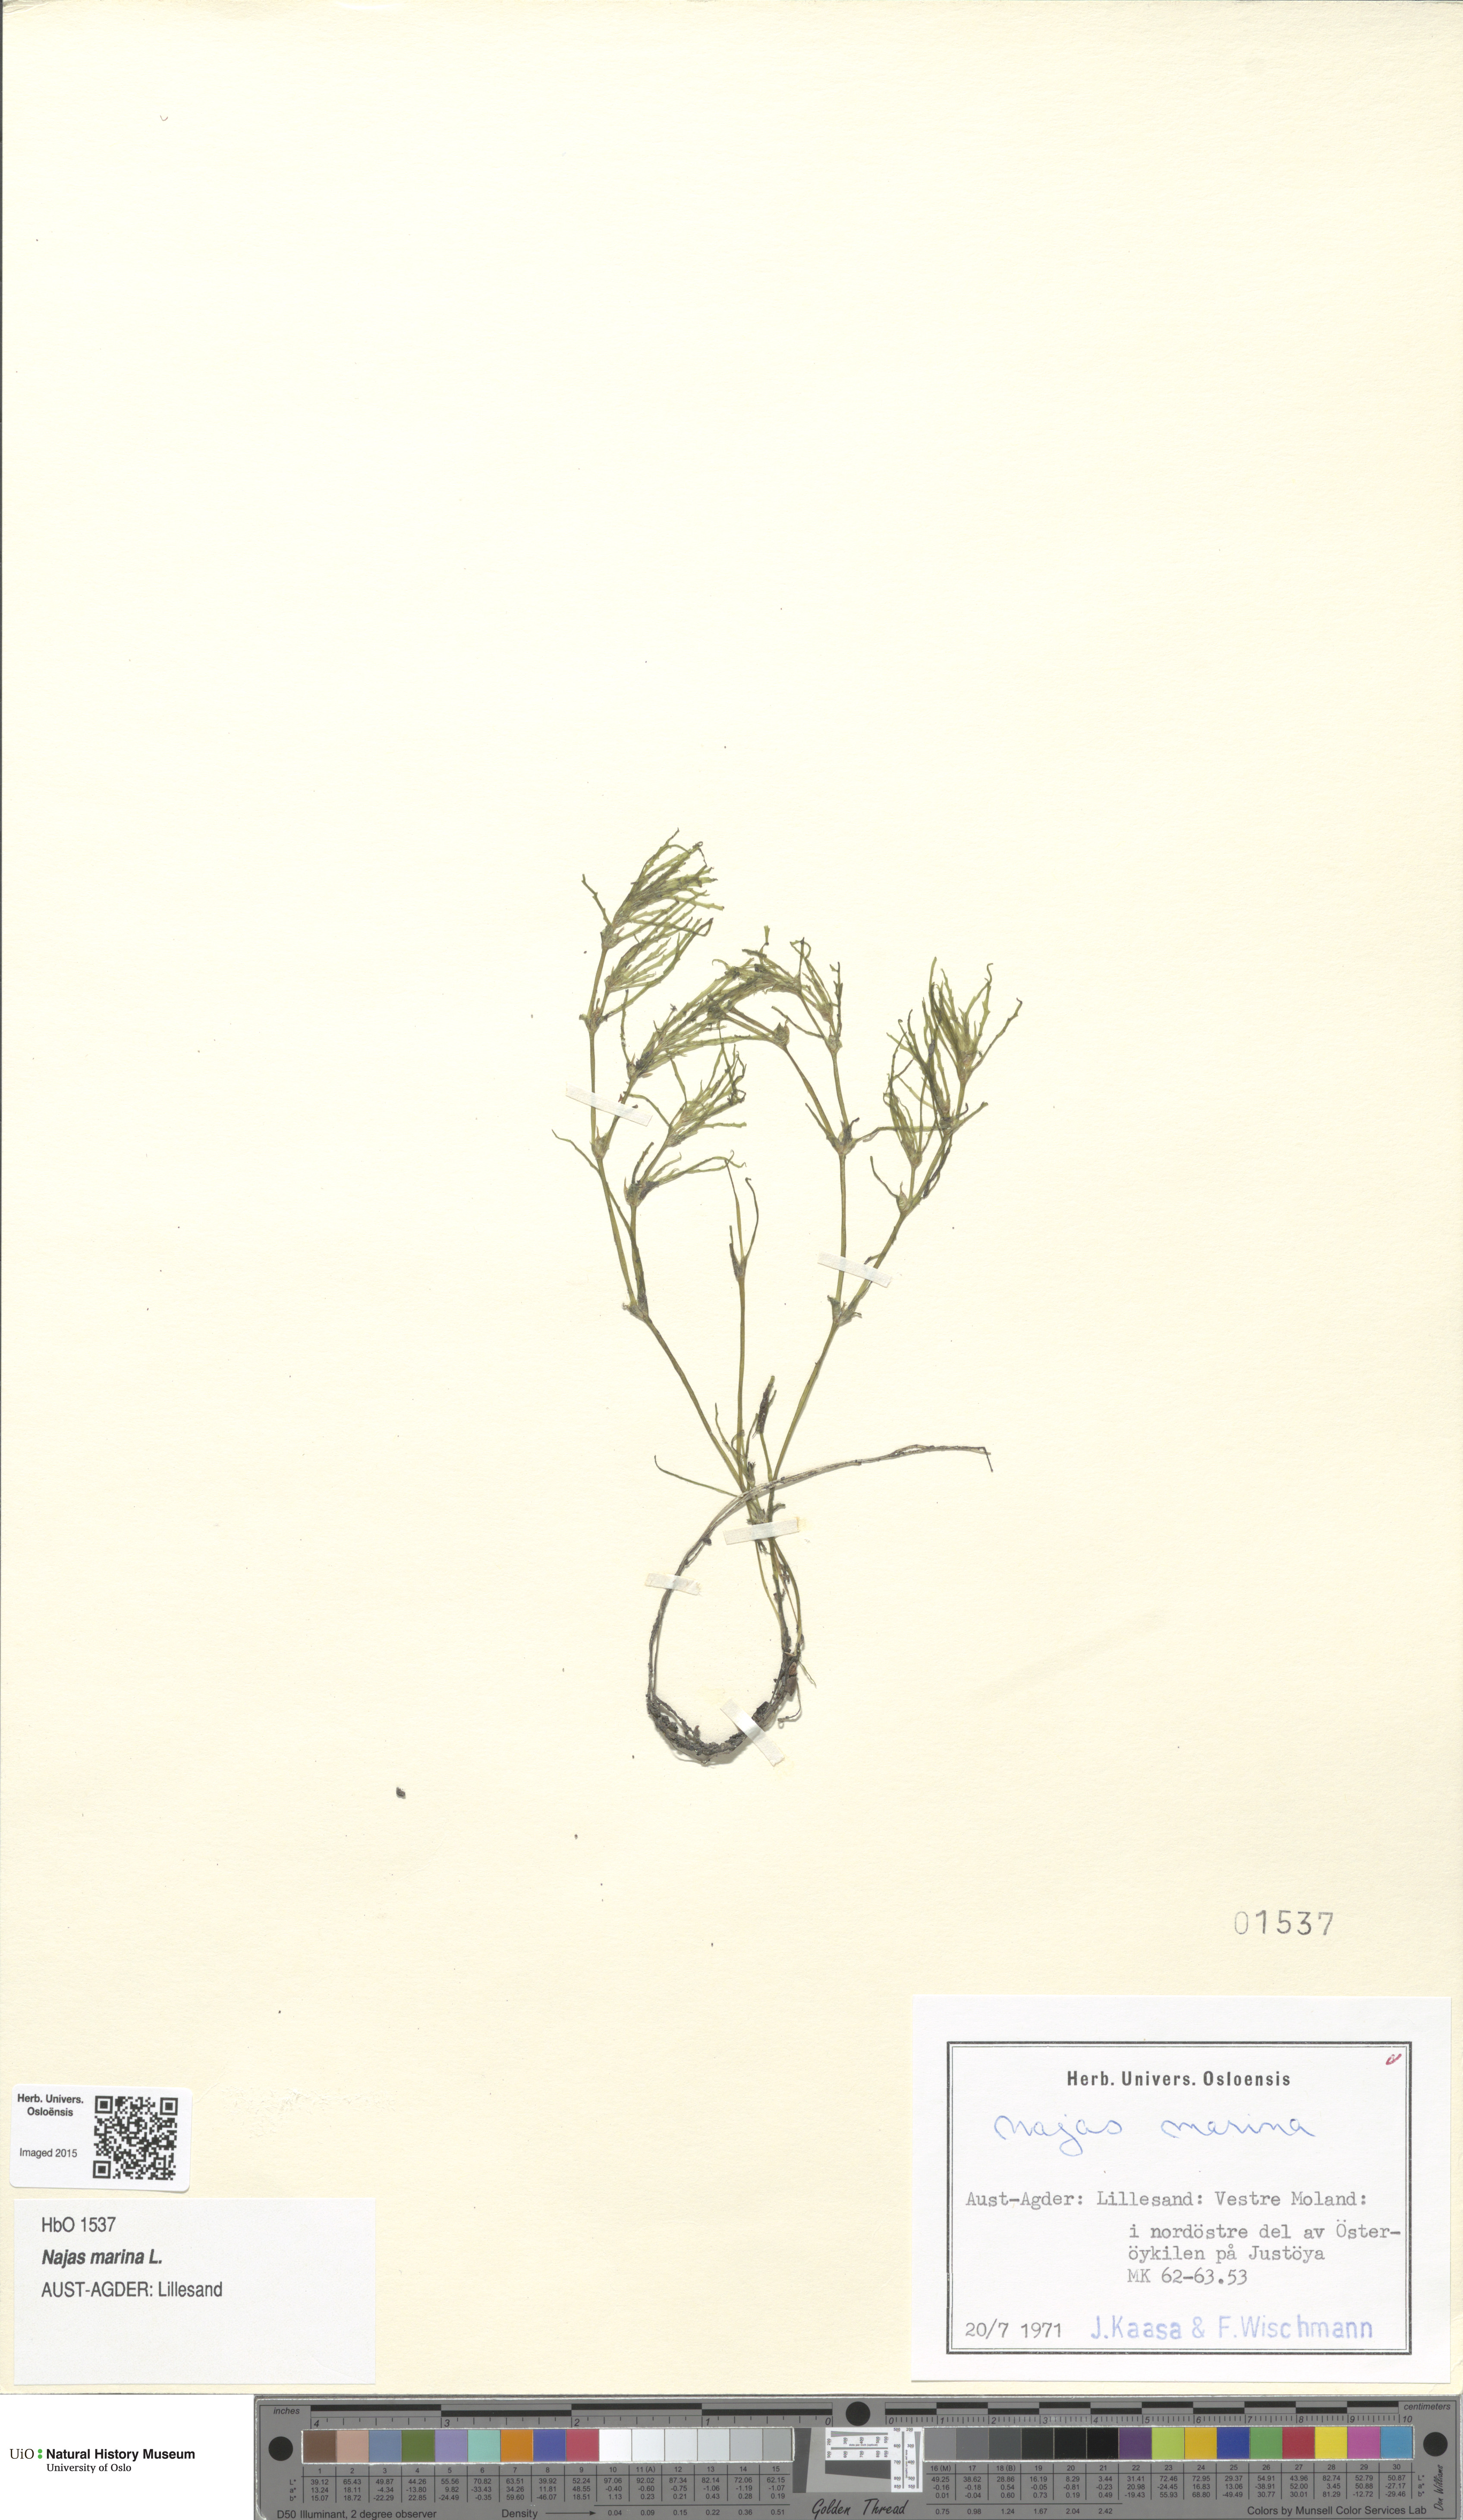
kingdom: Plantae
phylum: Tracheophyta
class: Liliopsida
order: Alismatales
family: Hydrocharitaceae
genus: Najas
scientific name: Najas marina
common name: Holly-leaved naiad
